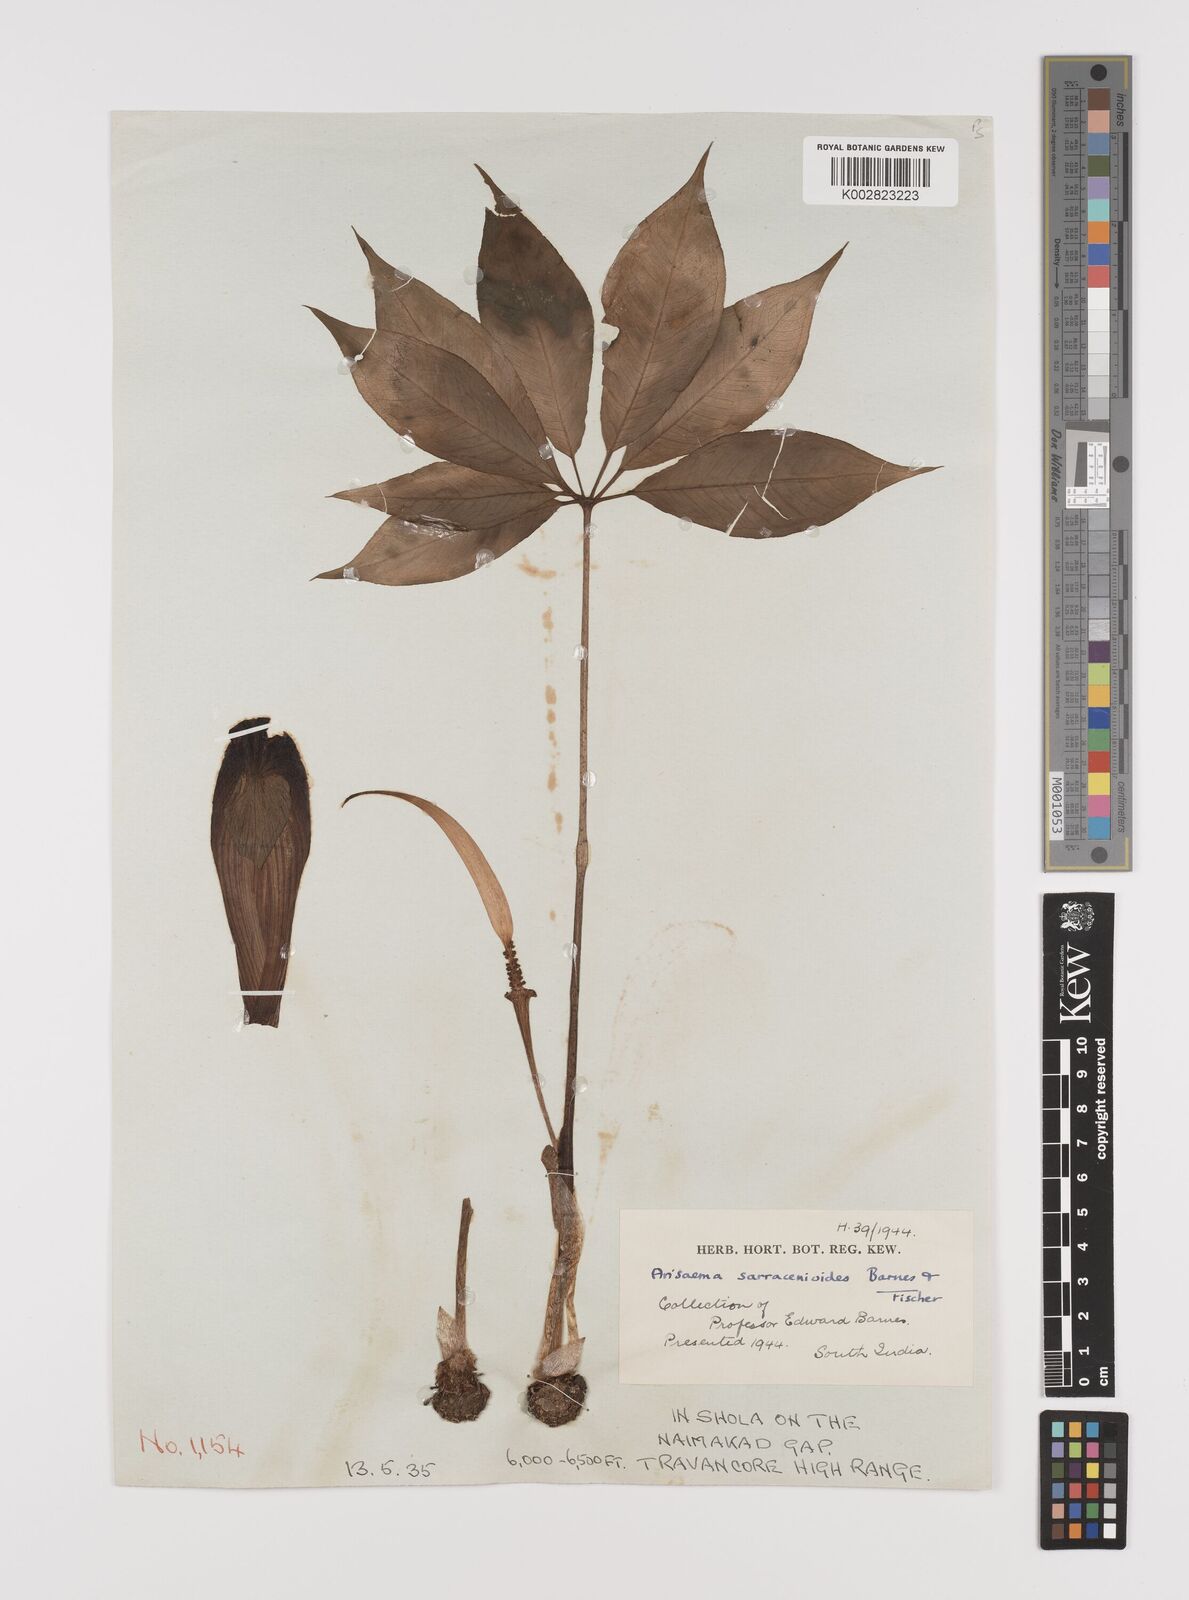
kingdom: Plantae
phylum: Tracheophyta
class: Liliopsida
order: Alismatales
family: Araceae
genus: Arisaema
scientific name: Arisaema sarracenioides
